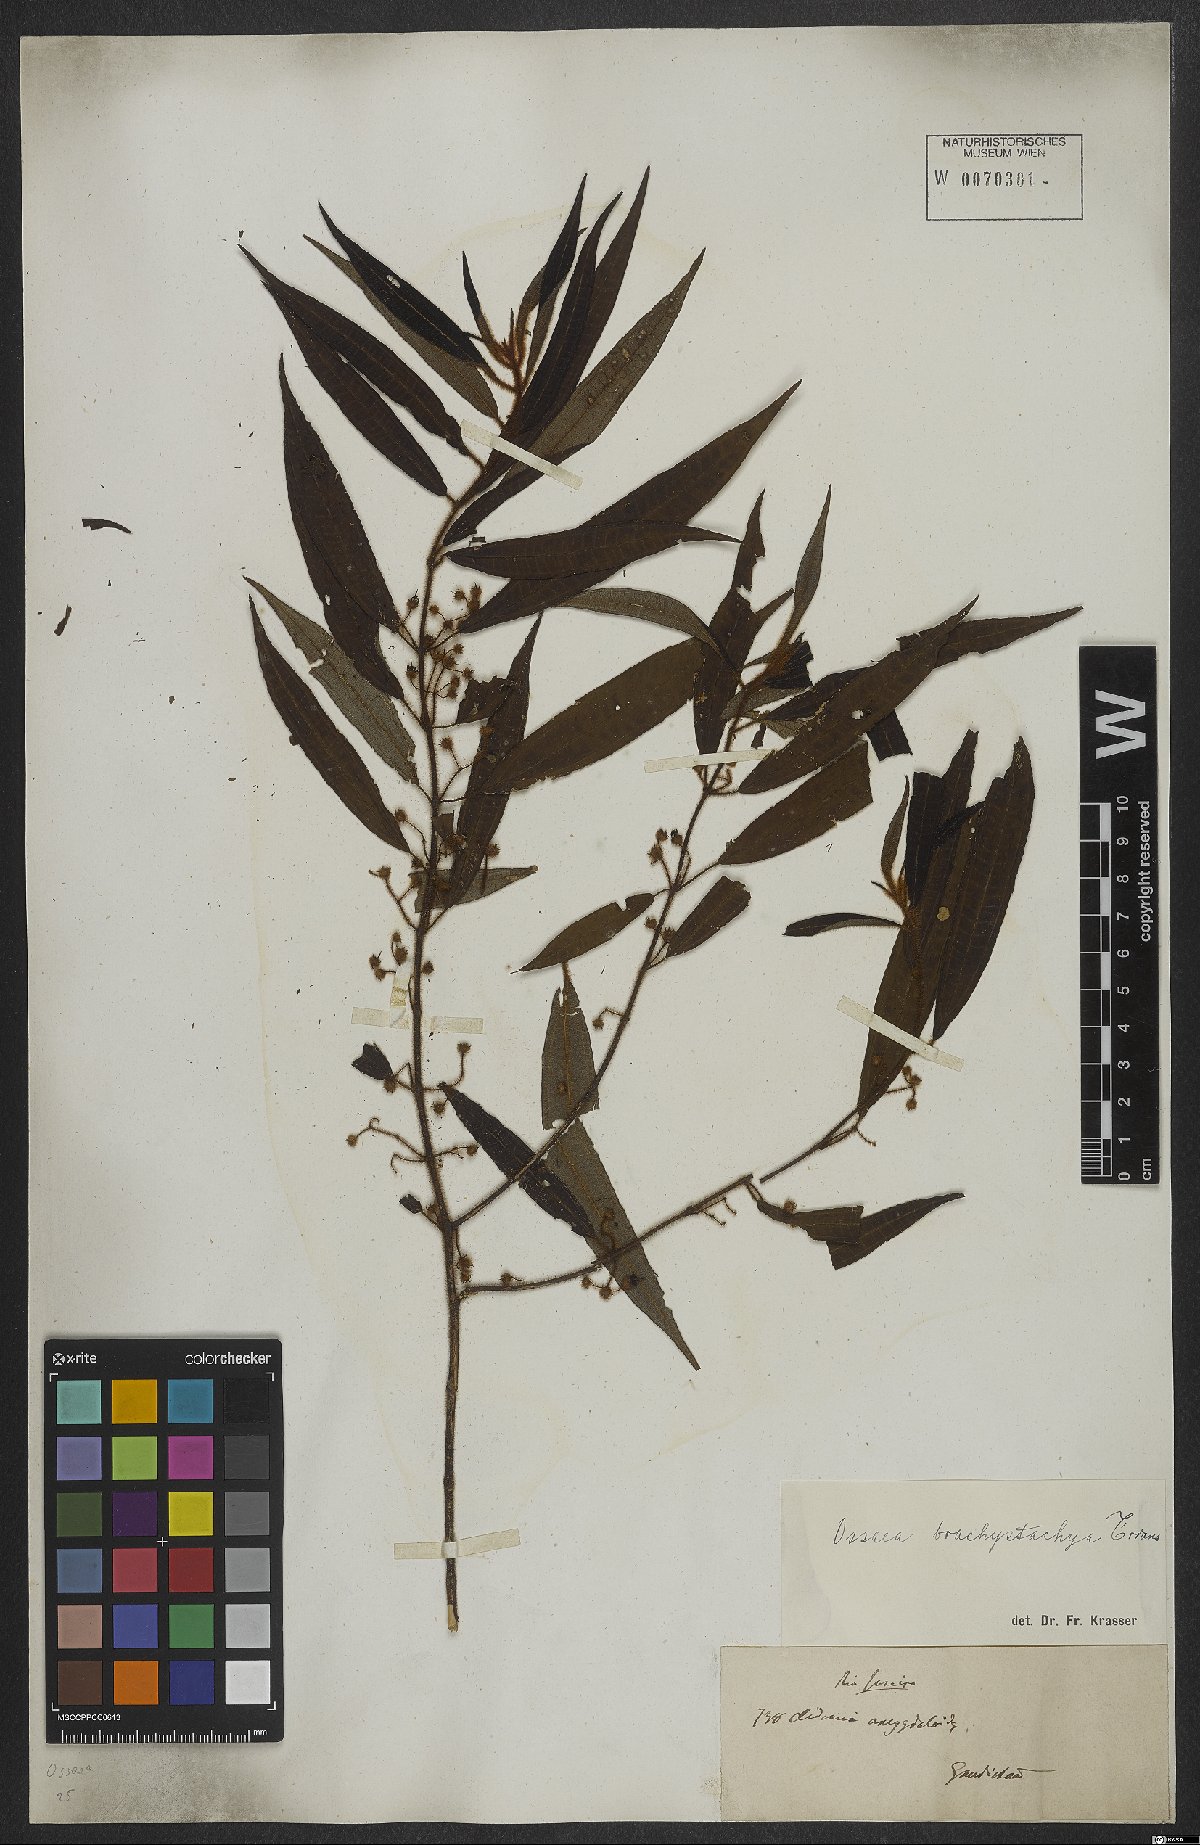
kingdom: Plantae
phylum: Tracheophyta
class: Magnoliopsida
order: Myrtales
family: Melastomataceae
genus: Miconia
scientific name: Miconia amygdaloides
